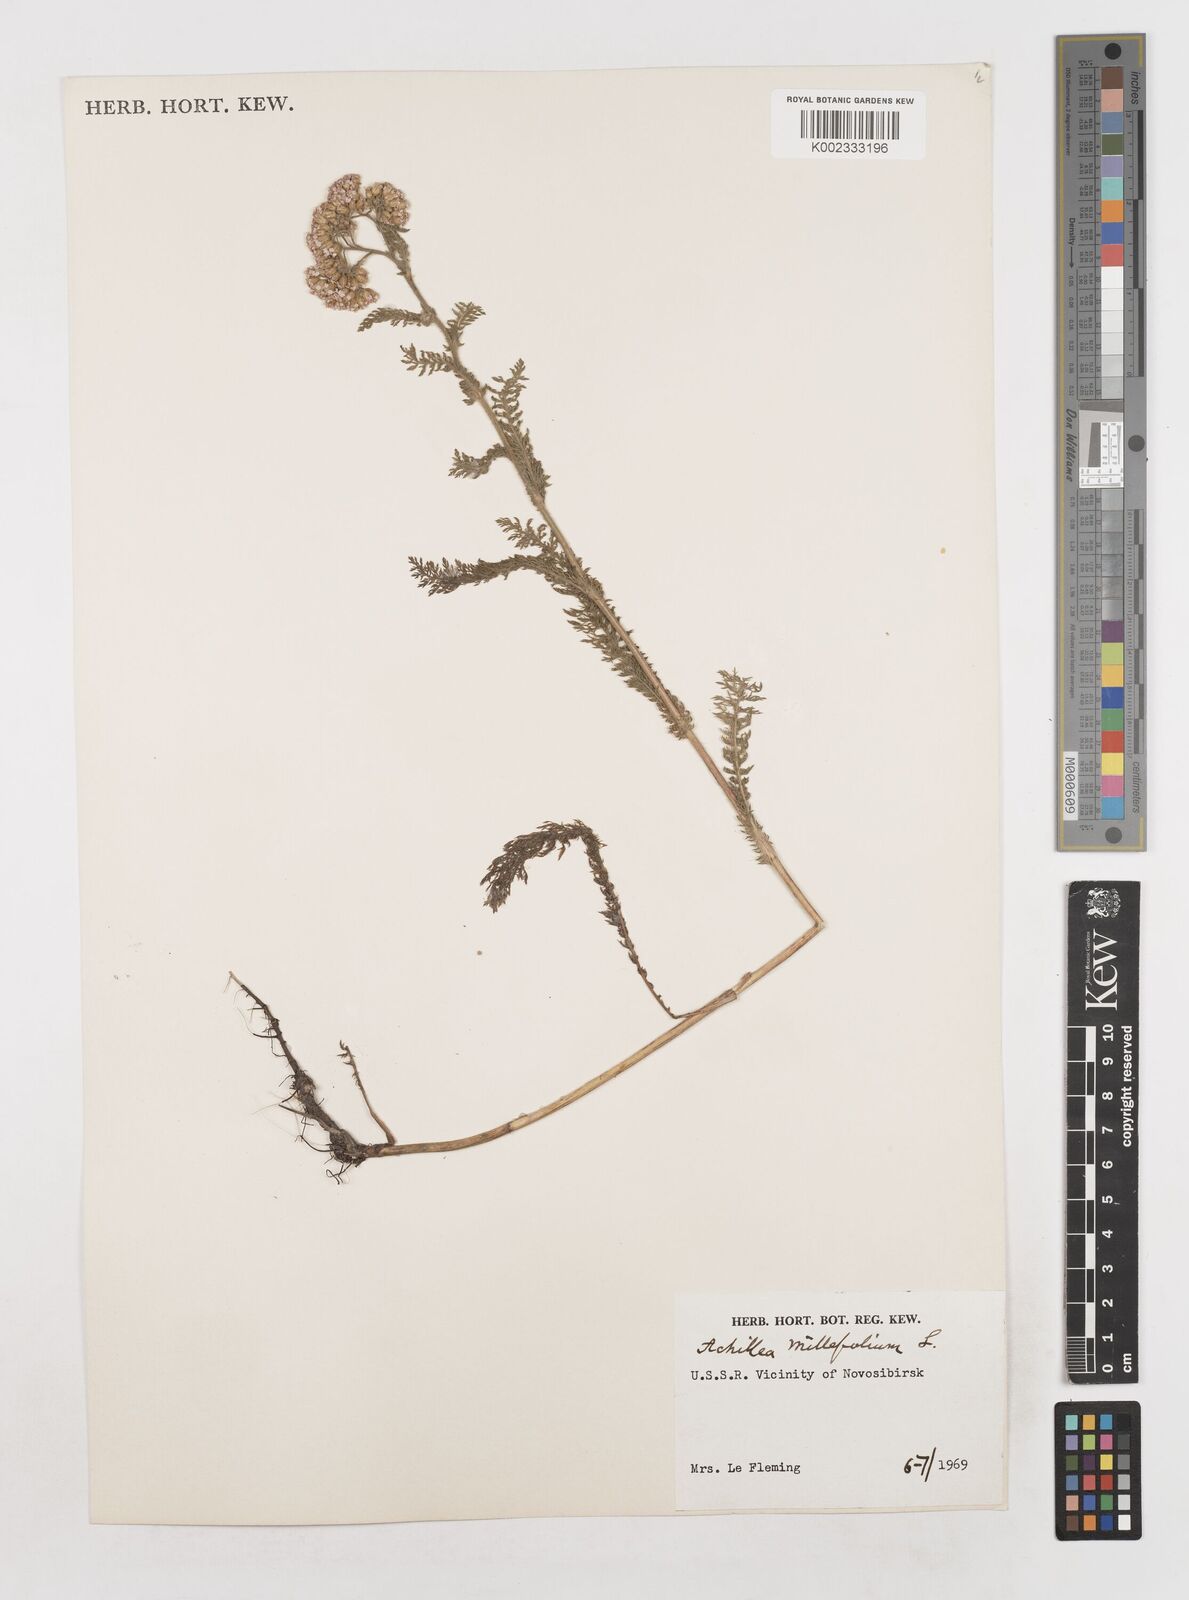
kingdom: Plantae
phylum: Tracheophyta
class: Magnoliopsida
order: Asterales
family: Asteraceae
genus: Achillea
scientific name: Achillea millefolium
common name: Yarrow
